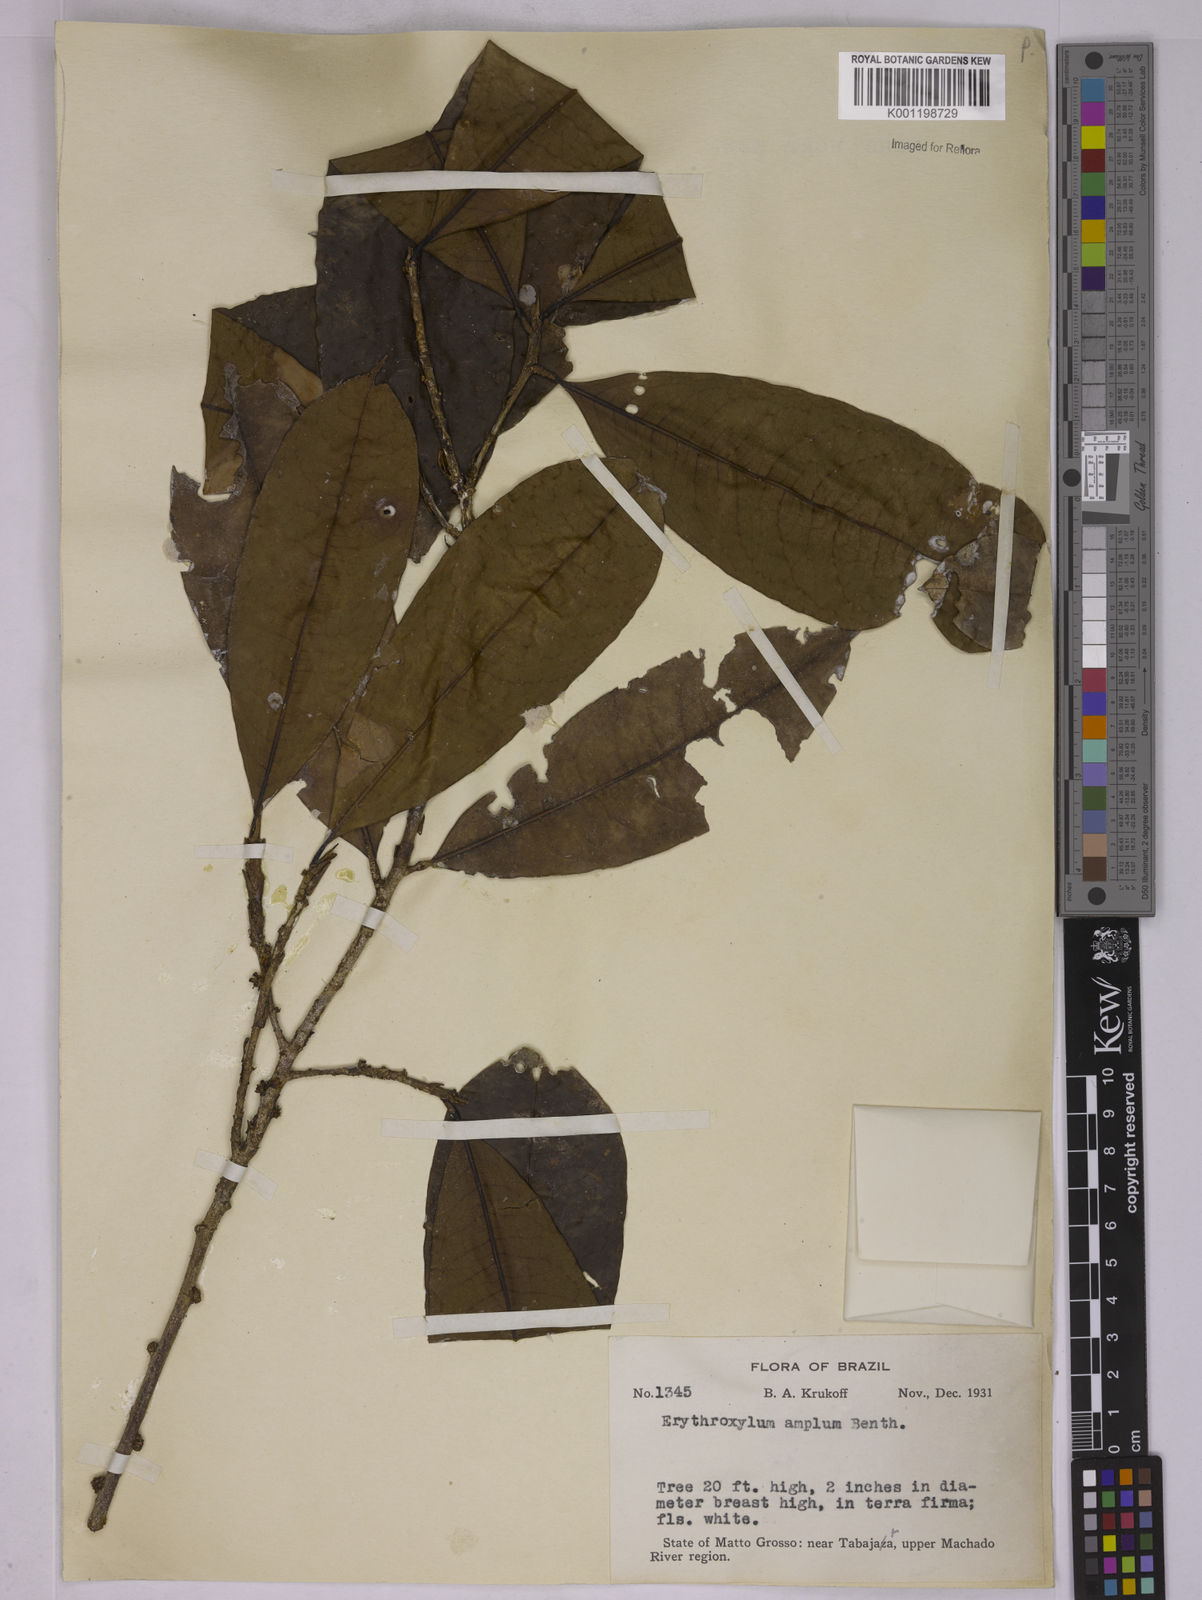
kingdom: Plantae
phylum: Tracheophyta
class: Magnoliopsida
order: Malpighiales
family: Erythroxylaceae
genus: Erythroxylum
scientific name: Erythroxylum amplum
